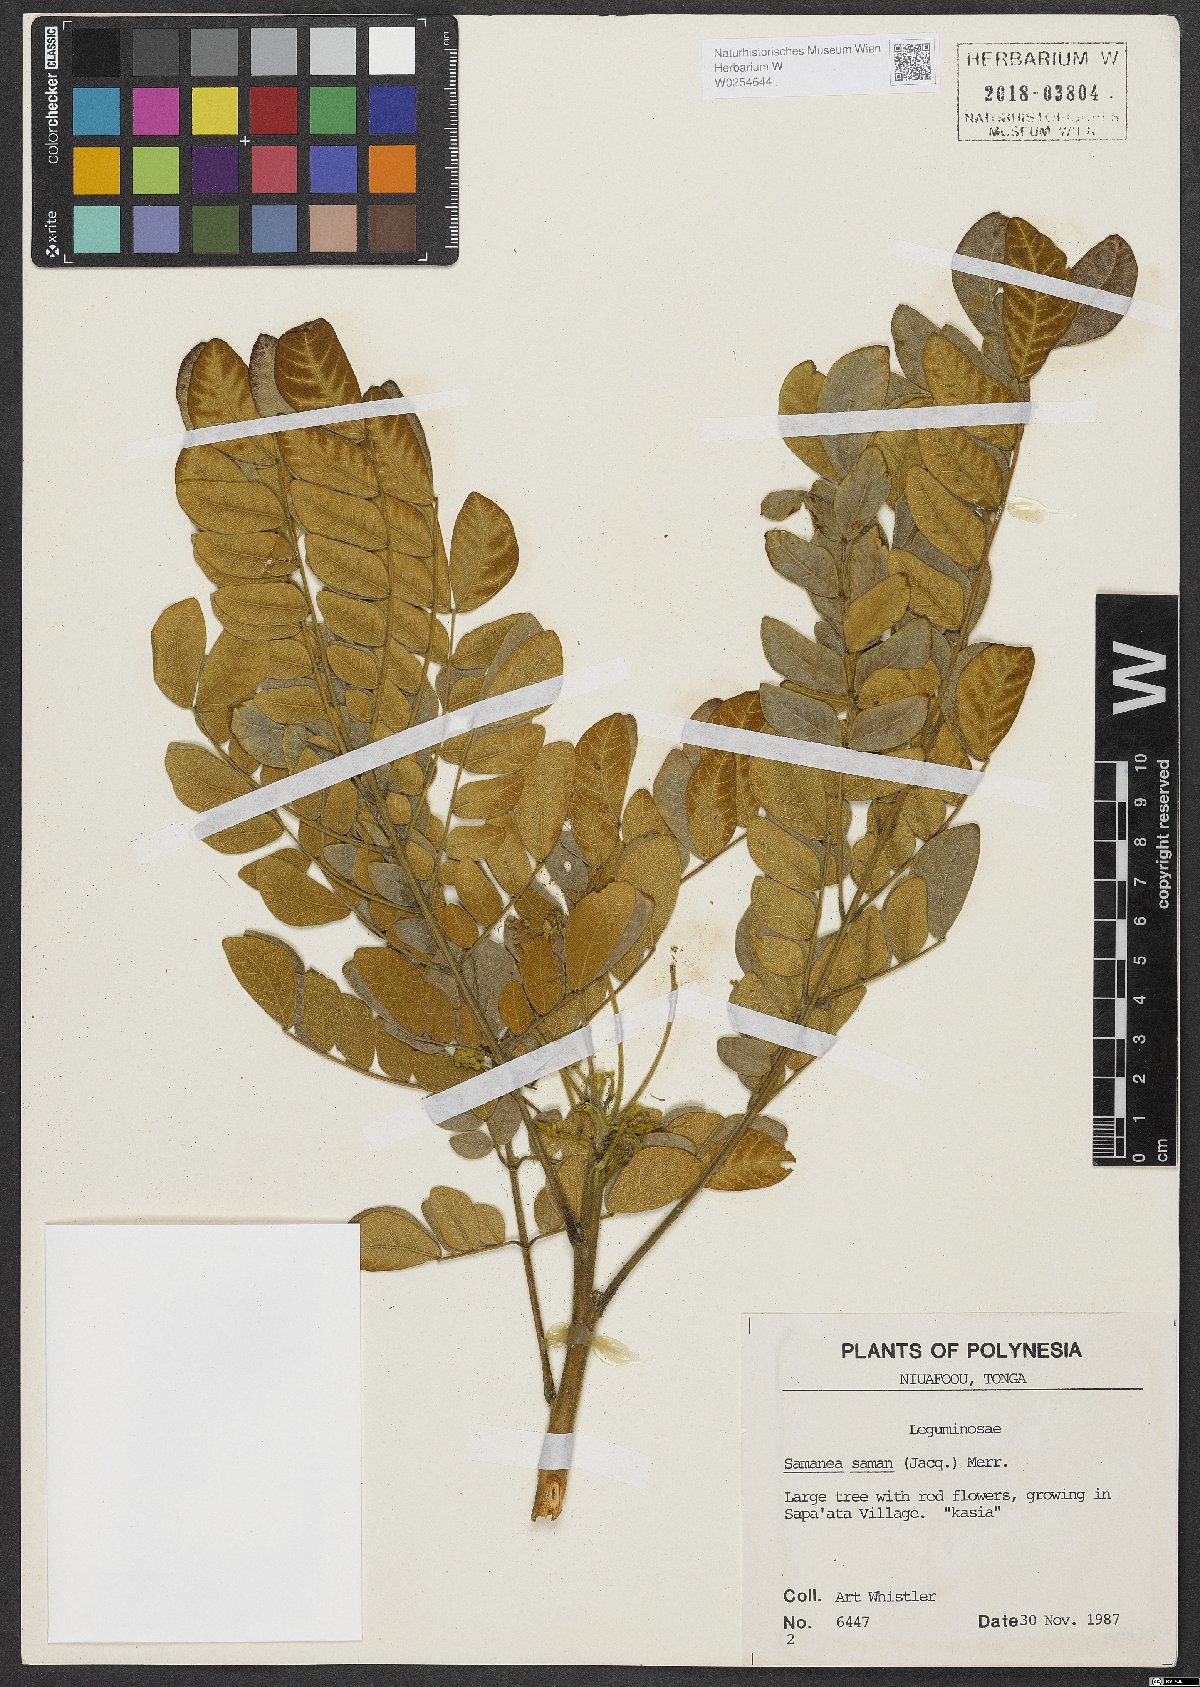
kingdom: Plantae
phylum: Tracheophyta
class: Magnoliopsida
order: Fabales
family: Fabaceae
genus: Samanea
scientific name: Samanea saman
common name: Raintree
